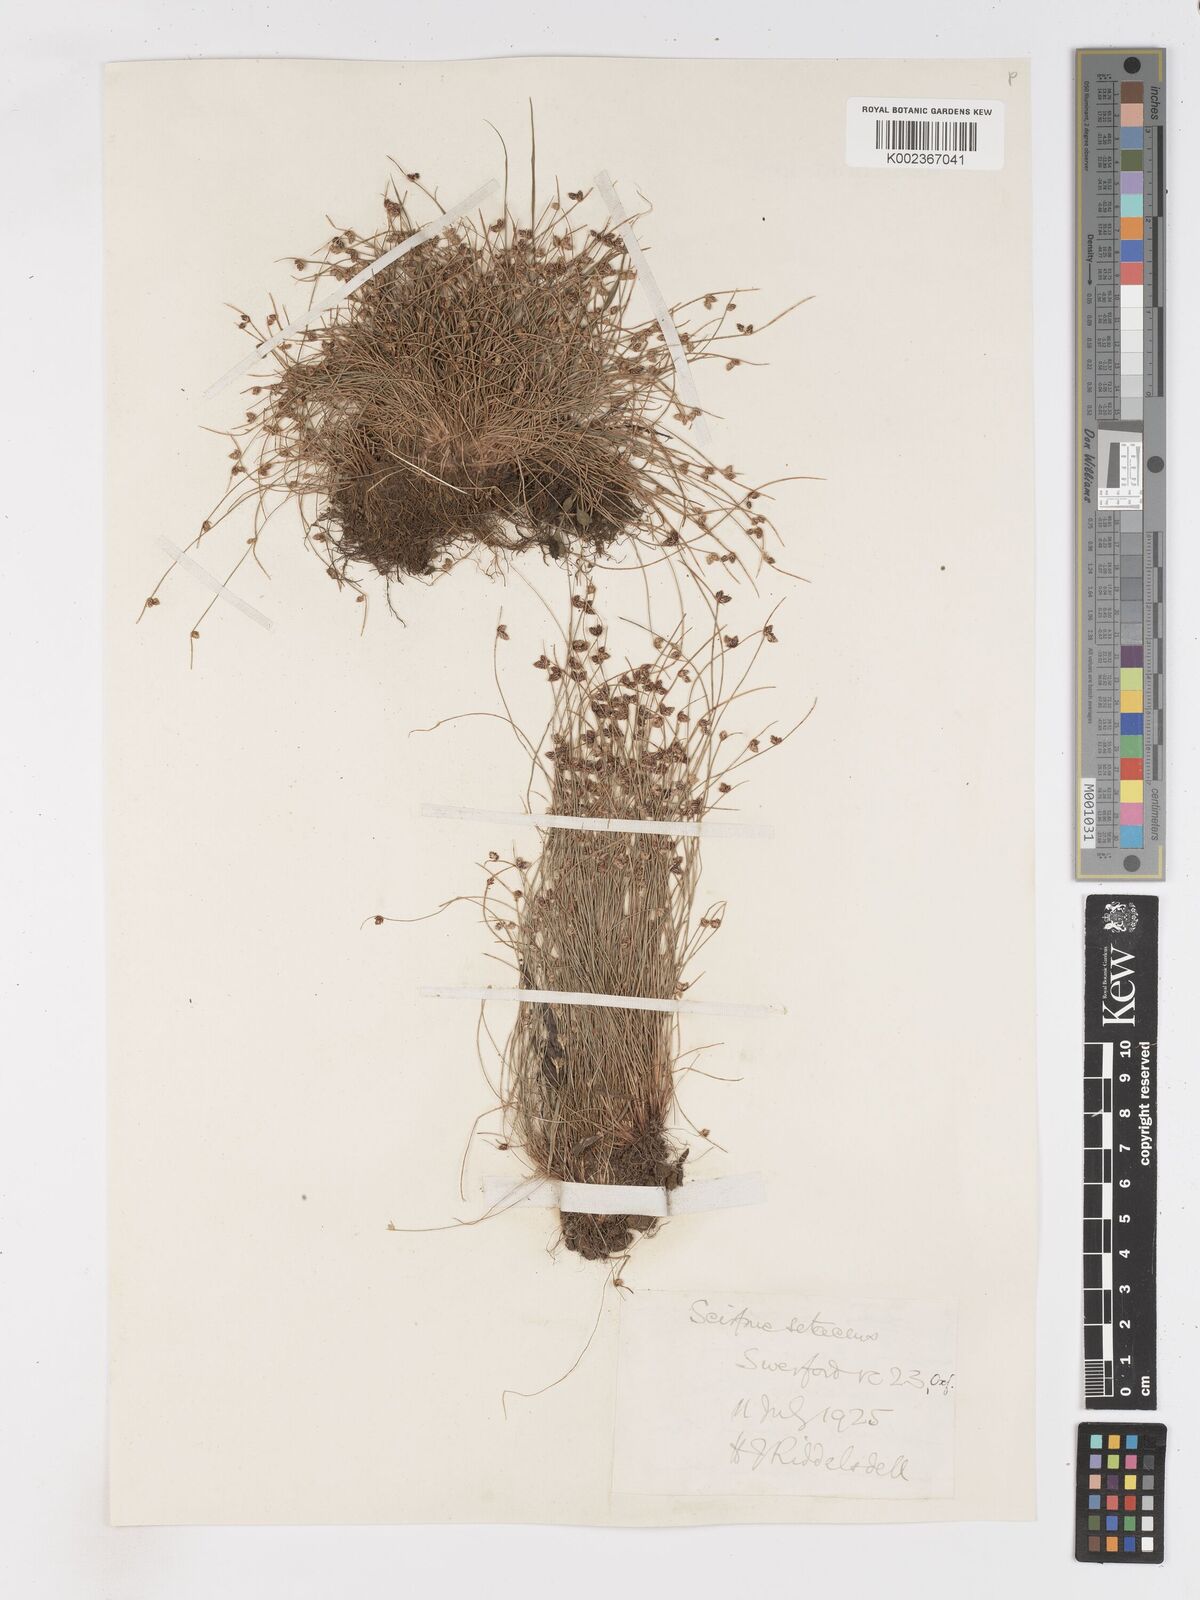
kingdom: Plantae
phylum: Tracheophyta
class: Liliopsida
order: Poales
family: Cyperaceae
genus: Isolepis
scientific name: Isolepis setacea
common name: Bristle club-rush
